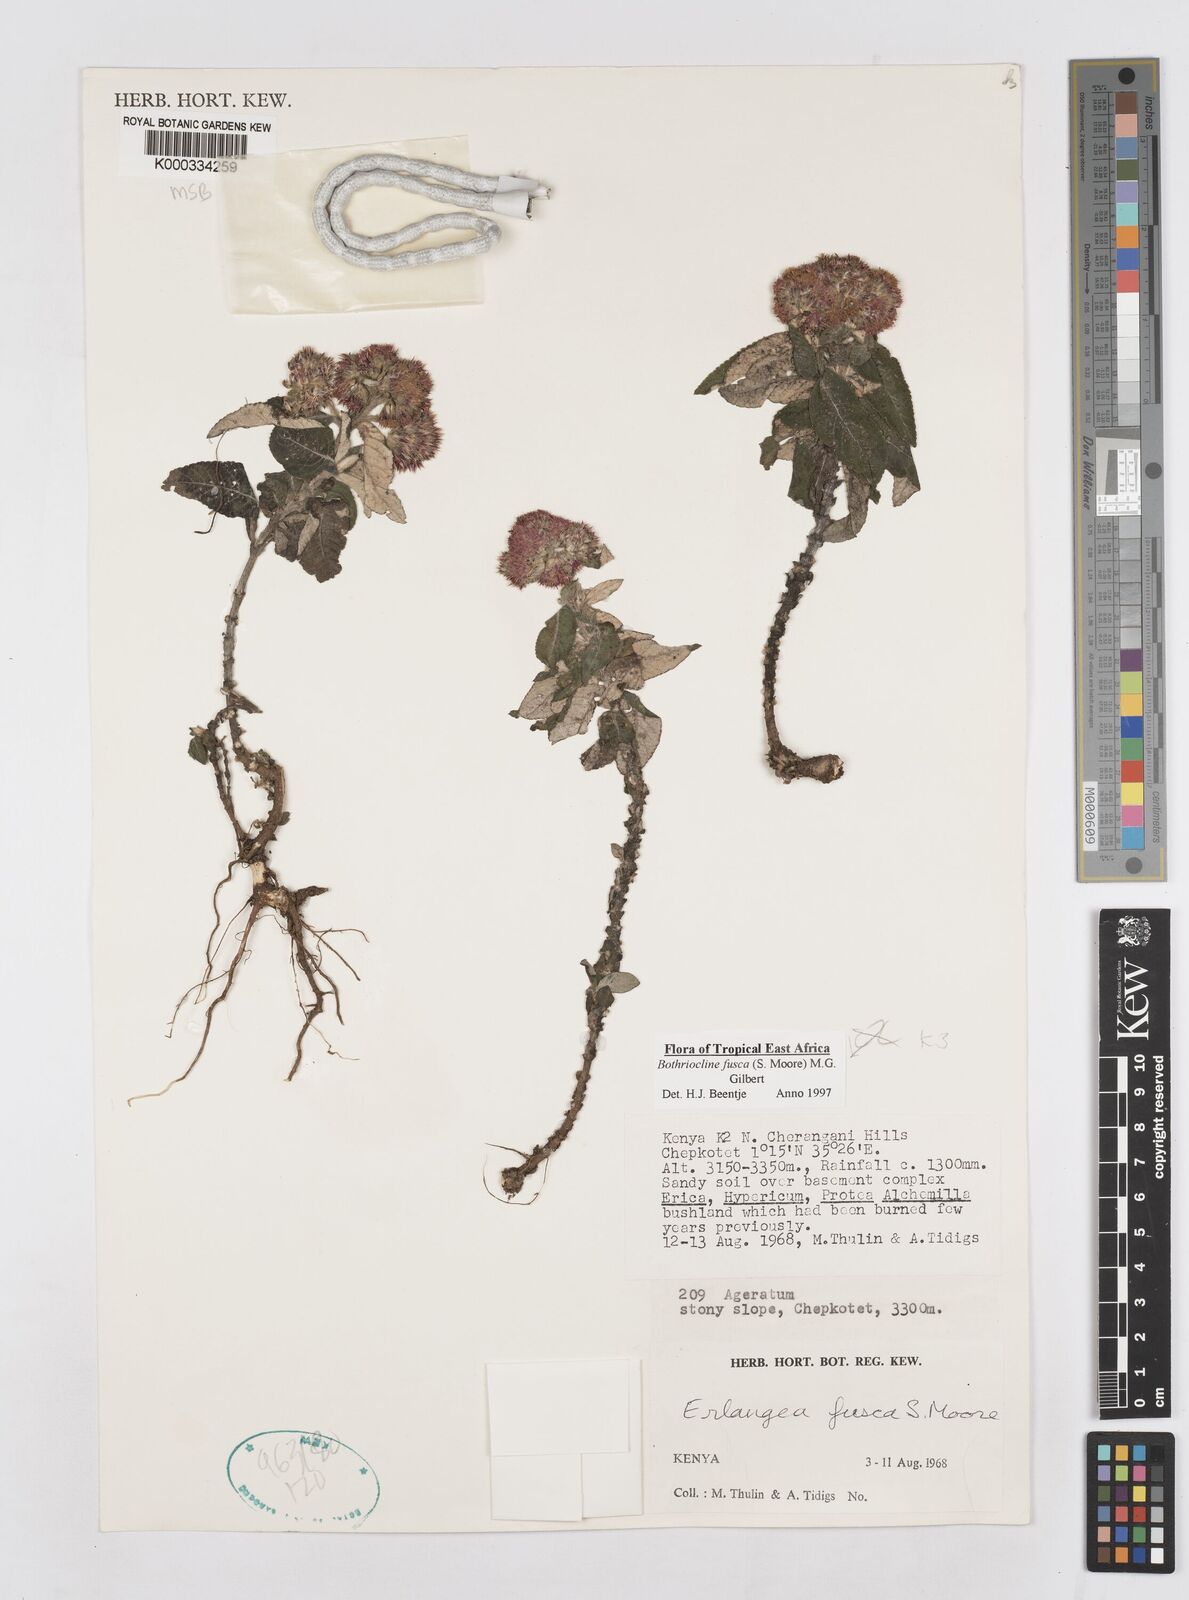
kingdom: Plantae
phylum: Tracheophyta
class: Magnoliopsida
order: Asterales
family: Asteraceae
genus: Bothriocline
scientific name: Bothriocline fusca
